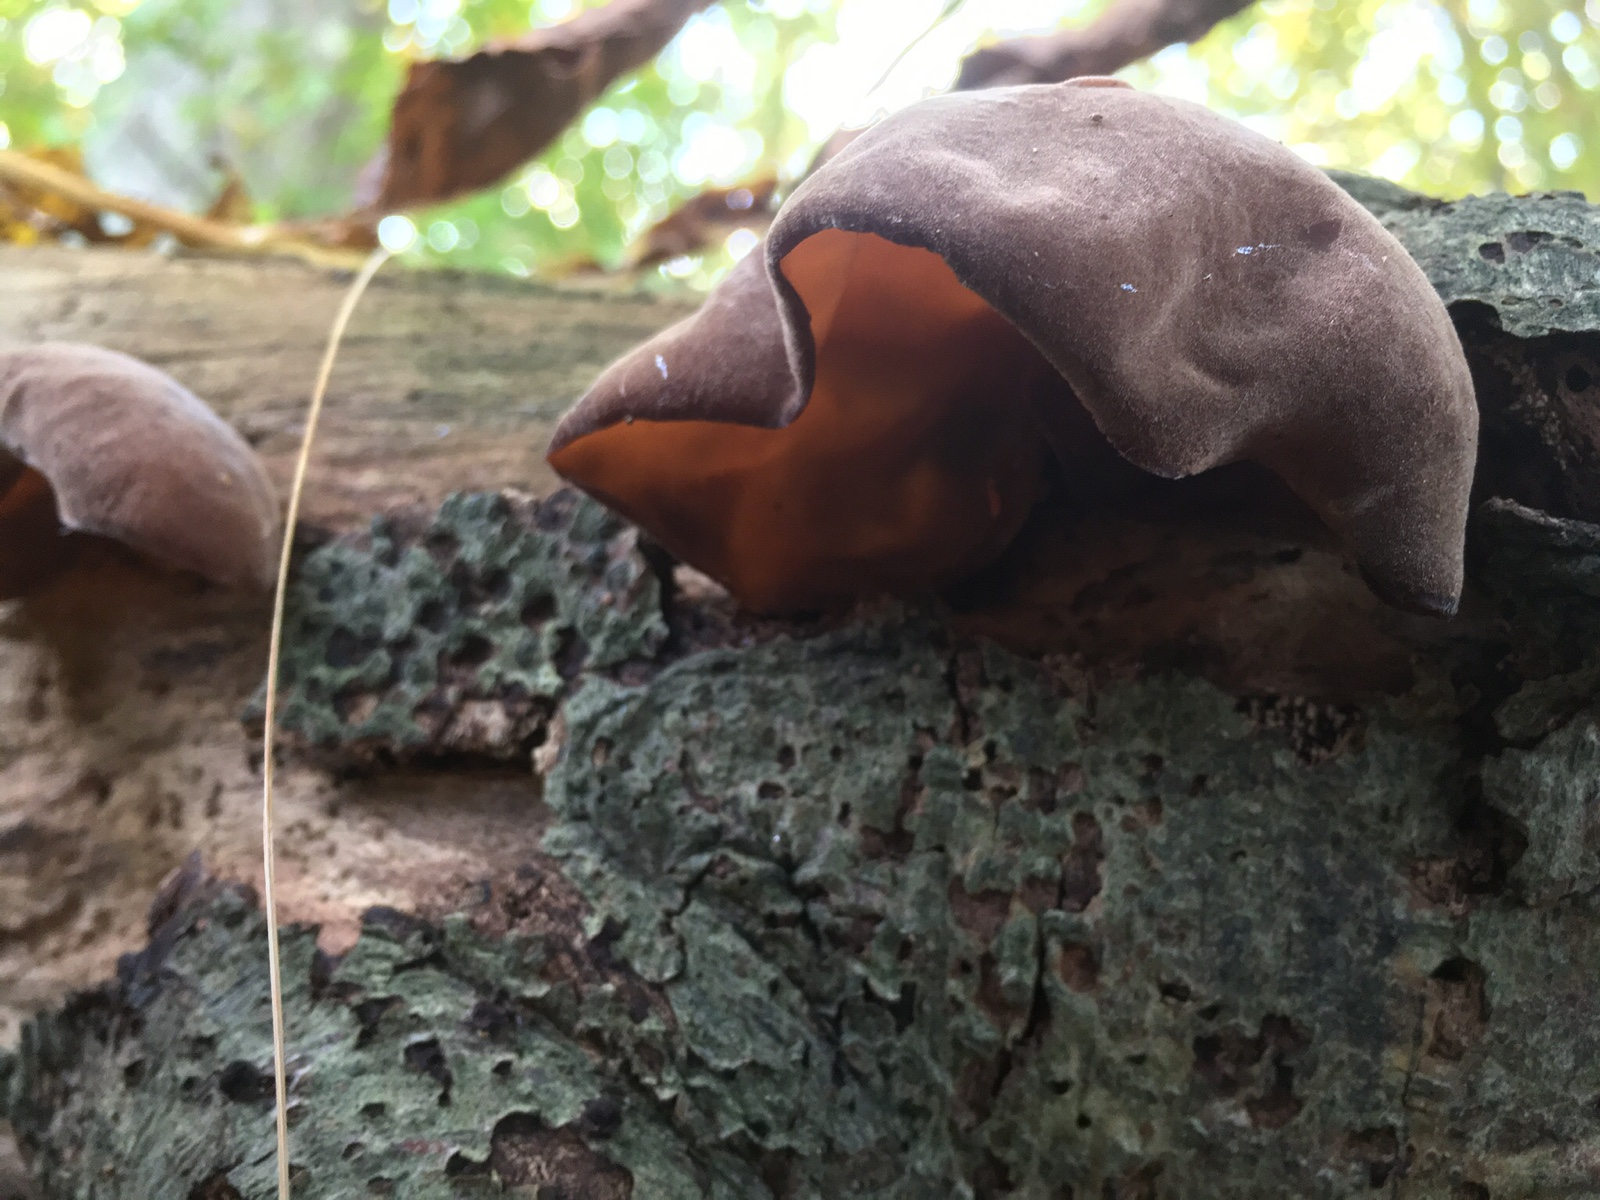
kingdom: Fungi
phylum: Basidiomycota
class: Agaricomycetes
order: Auriculariales
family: Auriculariaceae
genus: Auricularia
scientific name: Auricularia auricula-judae
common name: almindelig judasøre
